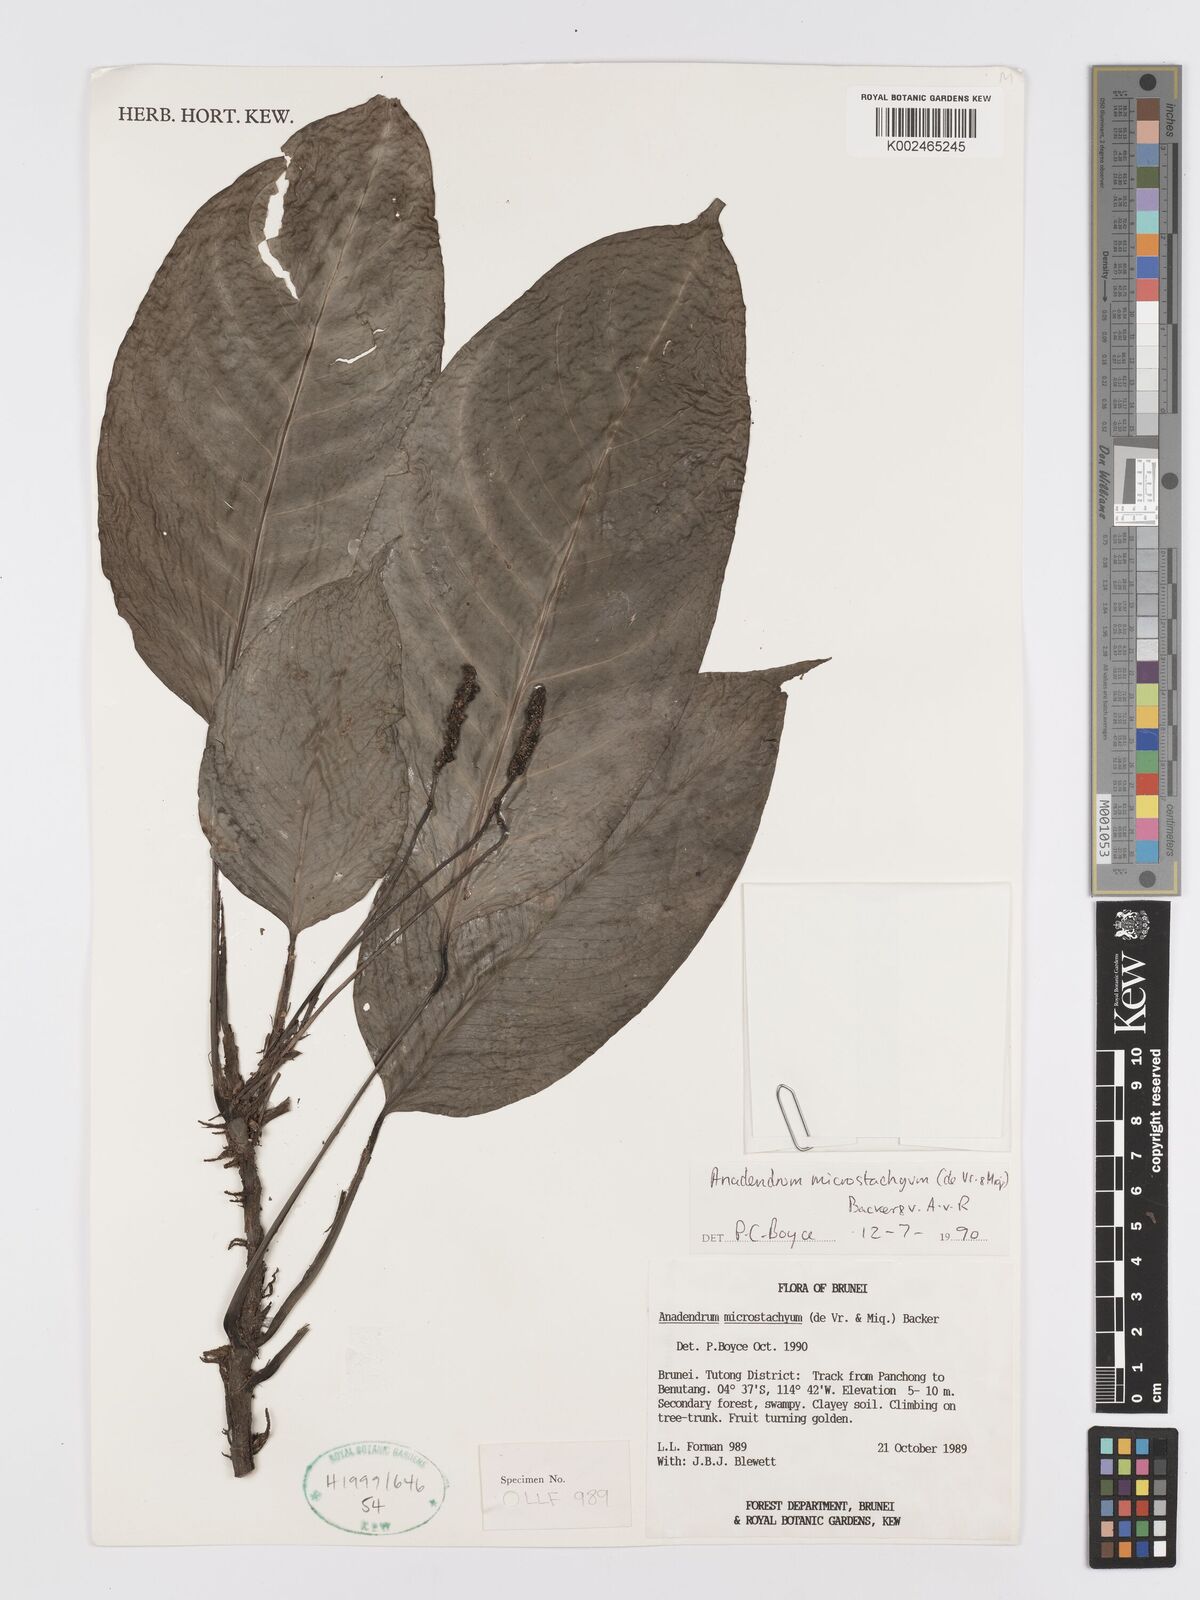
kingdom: Plantae
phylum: Tracheophyta
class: Liliopsida
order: Alismatales
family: Araceae
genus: Anadendrum
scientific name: Anadendrum microstachyum
